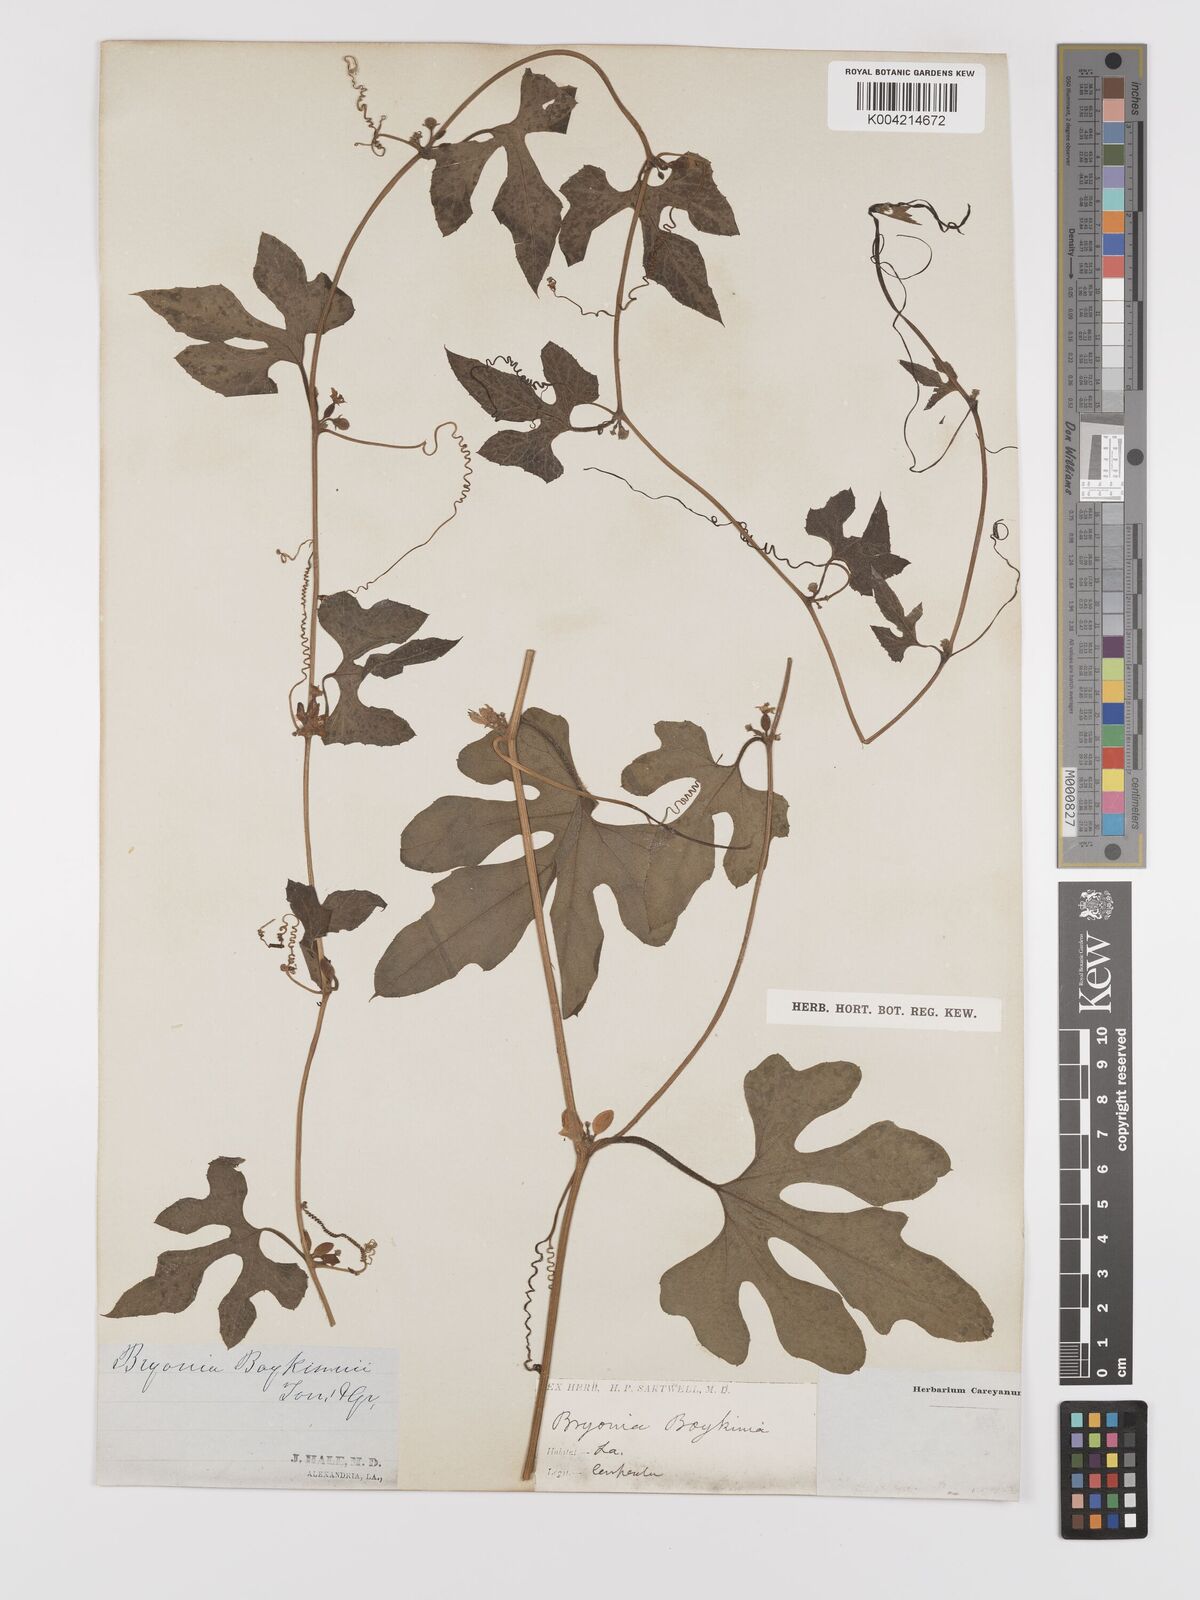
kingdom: Plantae
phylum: Tracheophyta
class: Magnoliopsida
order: Cucurbitales
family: Cucurbitaceae
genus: Cayaponia
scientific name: Cayaponia quinqueloba
